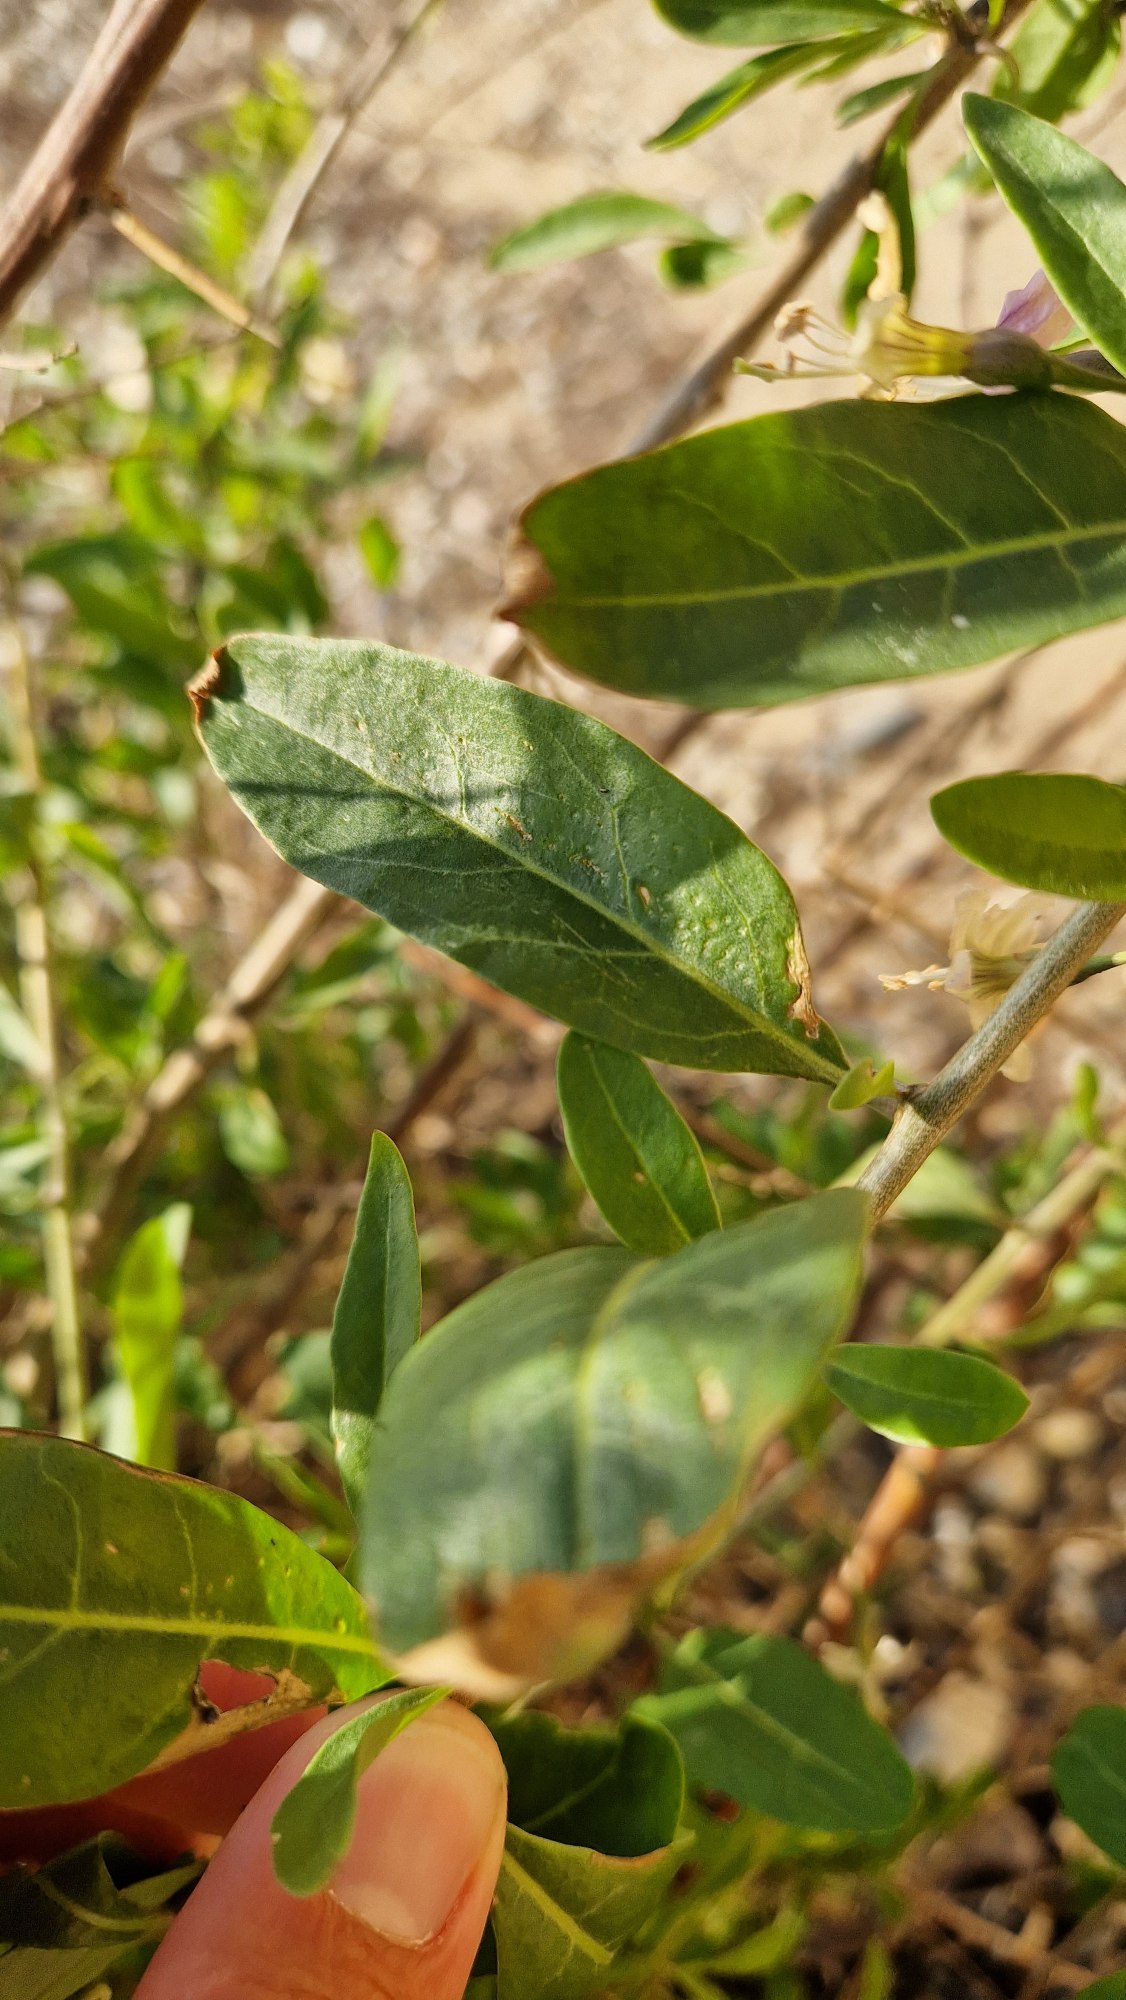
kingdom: Plantae
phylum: Tracheophyta
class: Magnoliopsida
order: Solanales
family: Solanaceae
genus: Lycium
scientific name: Lycium barbarum
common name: Bukketorn
